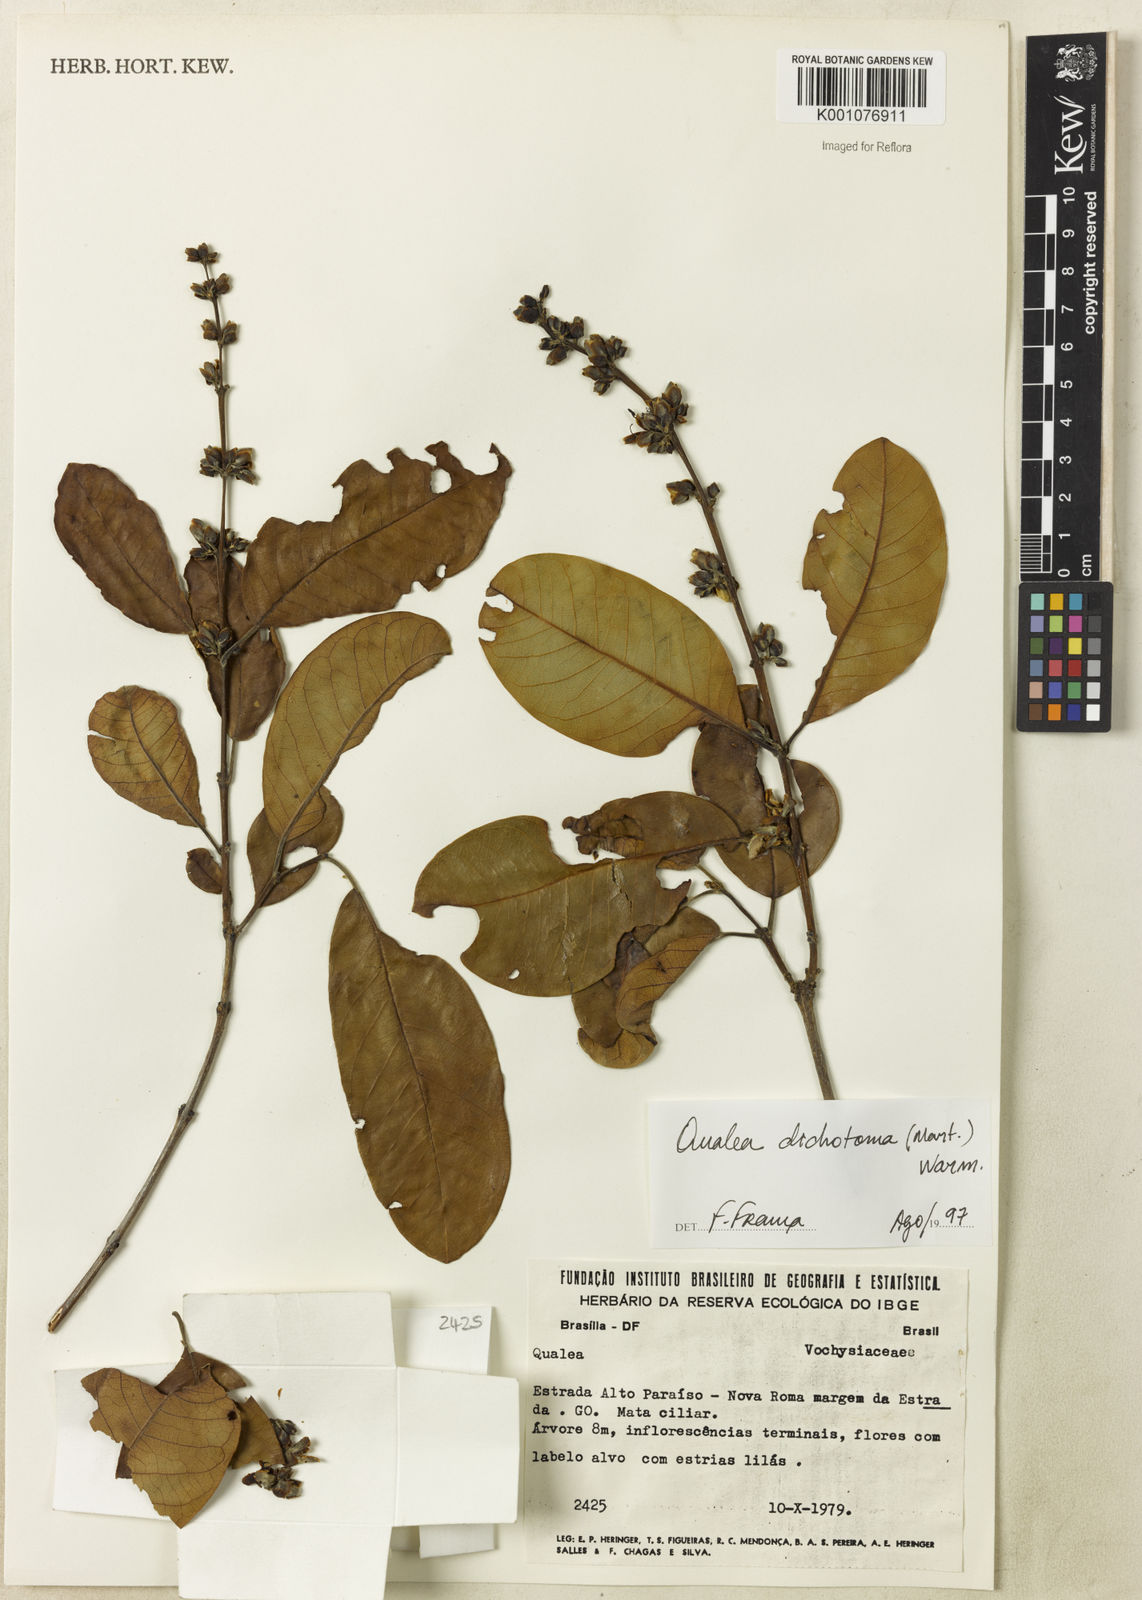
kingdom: Plantae
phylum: Tracheophyta
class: Magnoliopsida
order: Myrtales
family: Vochysiaceae
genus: Qualea
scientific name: Qualea
